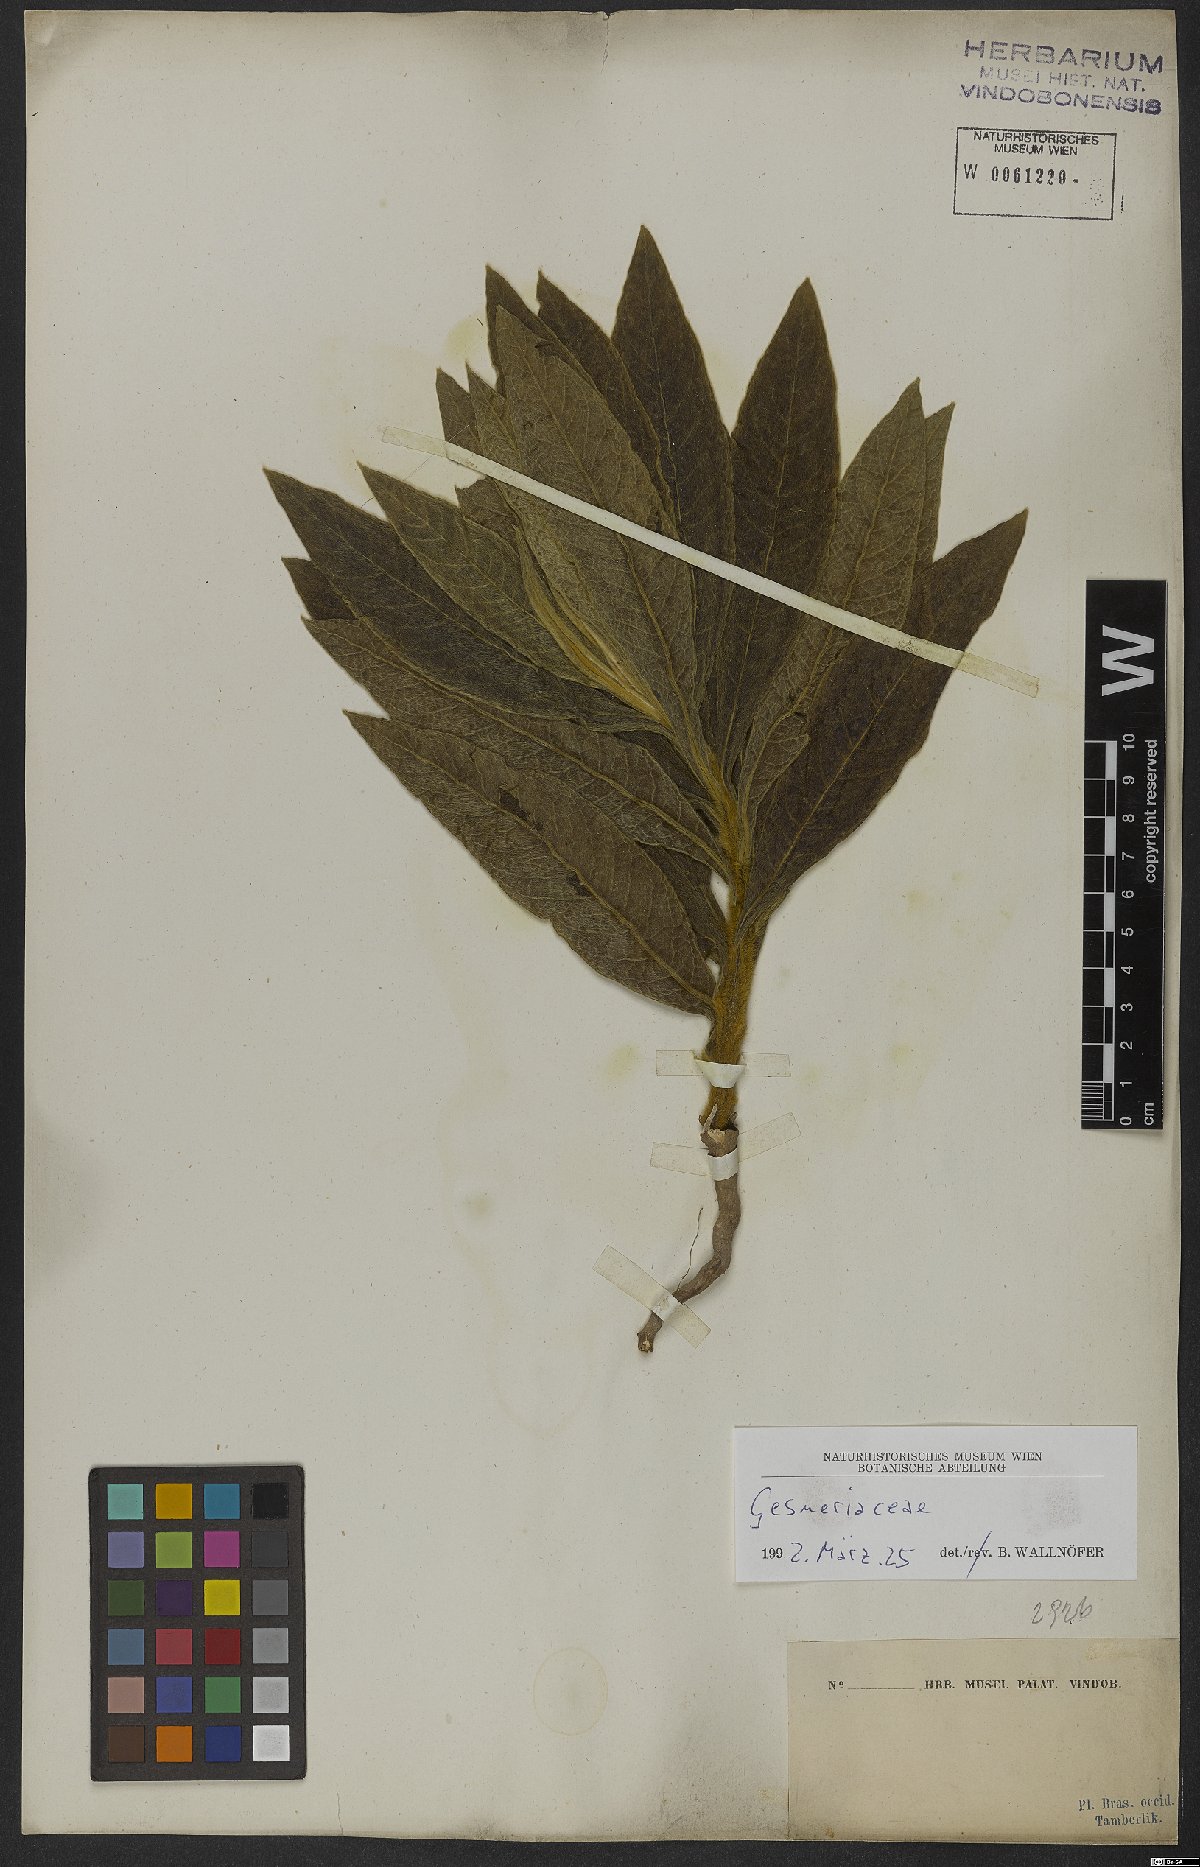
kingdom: Plantae
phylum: Tracheophyta
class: Magnoliopsida
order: Lamiales
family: Gesneriaceae
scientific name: Gesneriaceae
